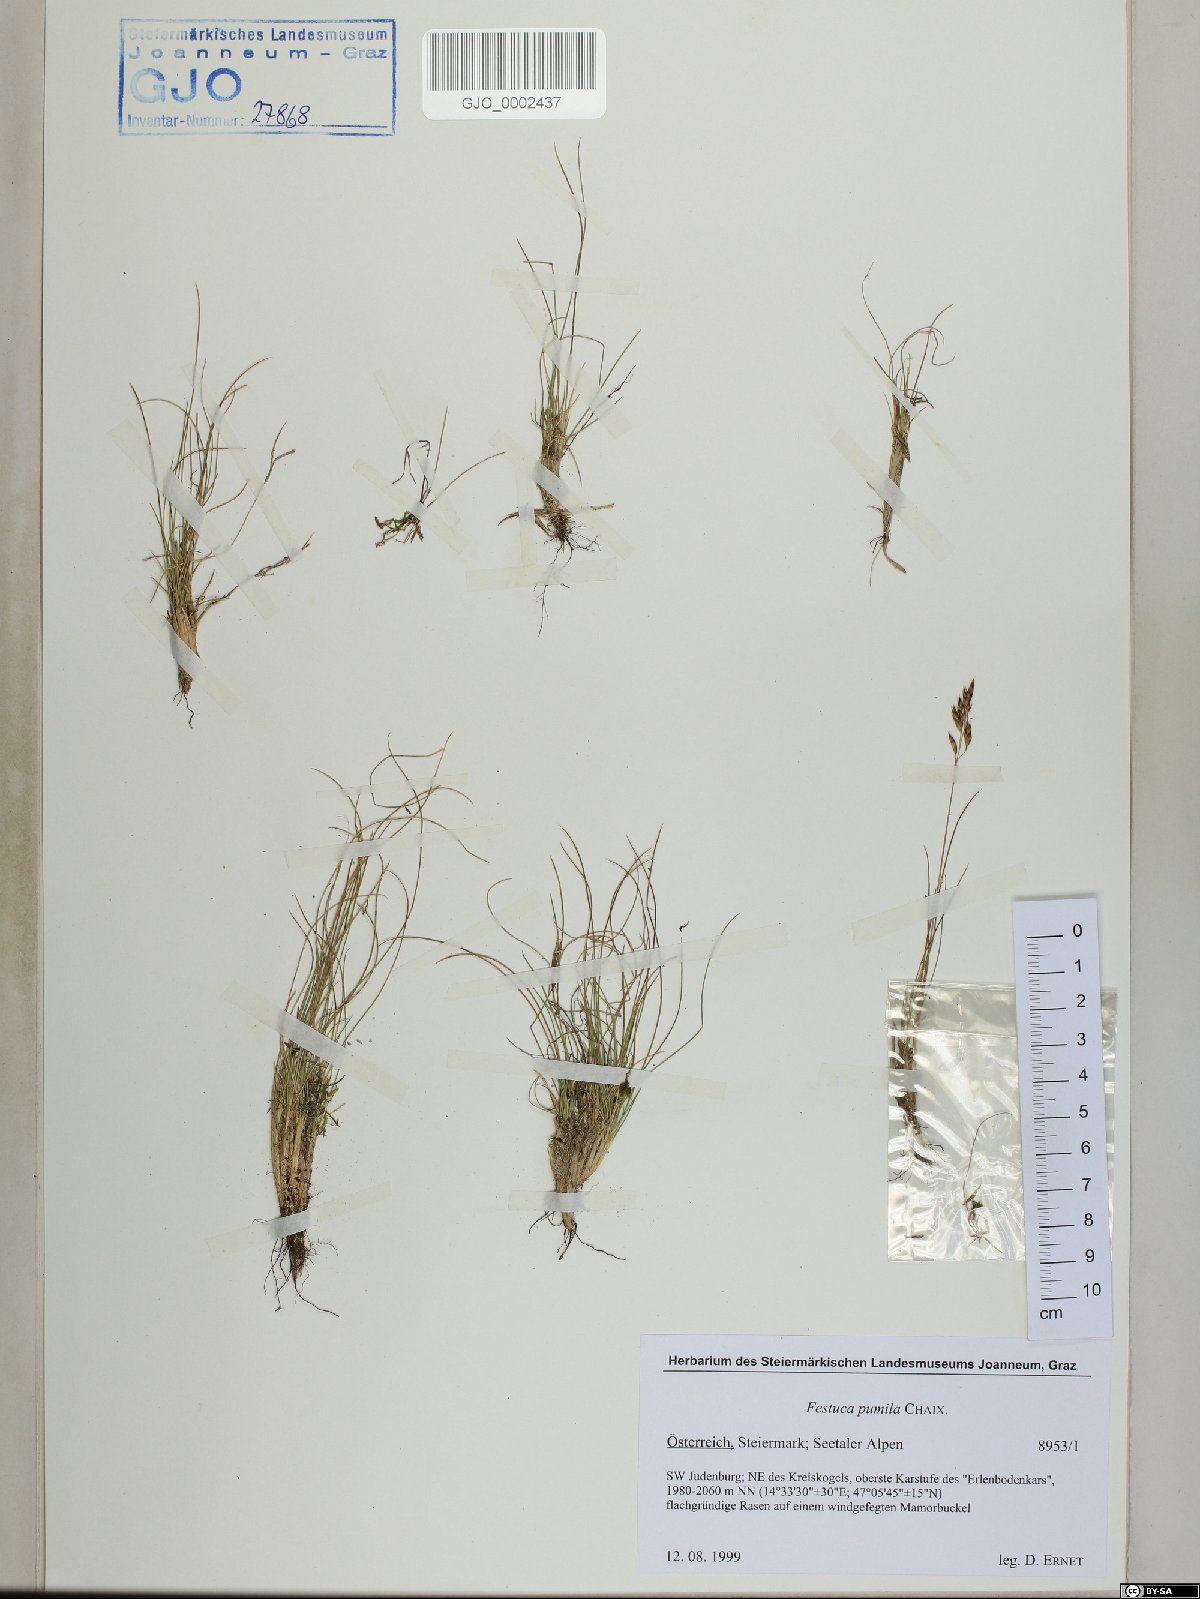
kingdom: Plantae
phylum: Tracheophyta
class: Liliopsida
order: Poales
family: Poaceae
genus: Festuca
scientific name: Festuca quadriflora
